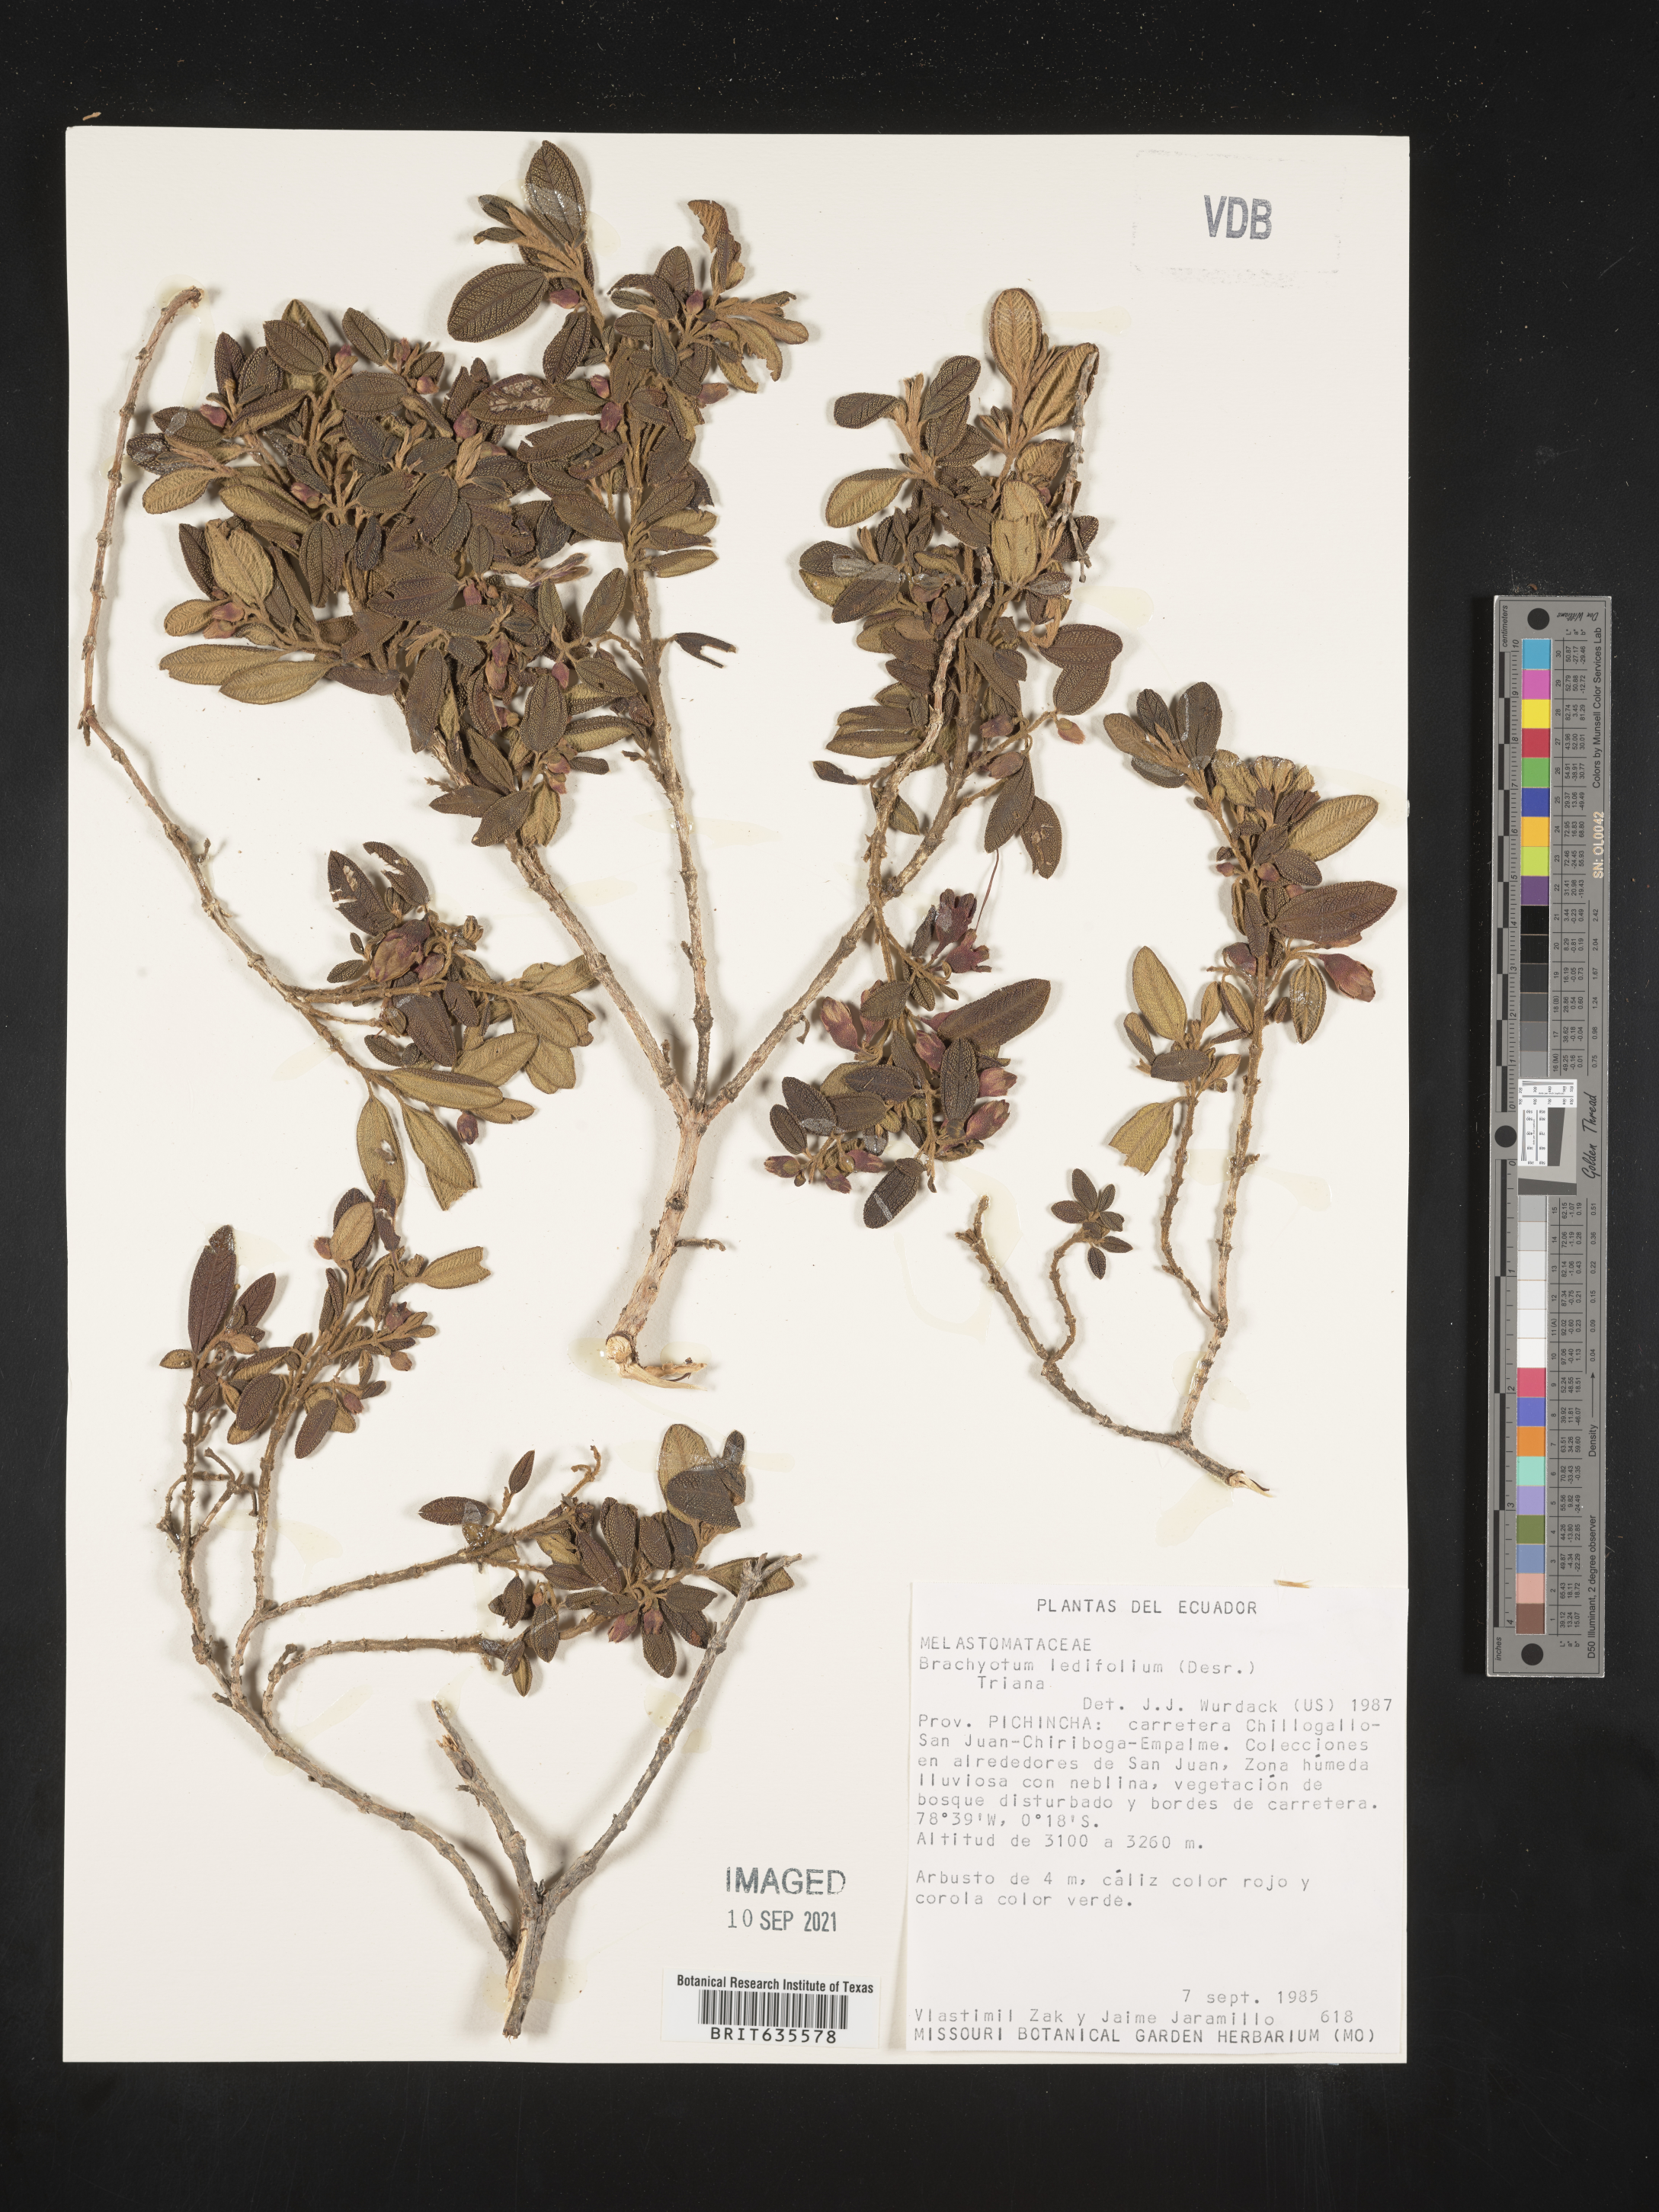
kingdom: Plantae
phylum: Tracheophyta
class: Magnoliopsida
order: Myrtales
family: Melastomataceae
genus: Brachyotum
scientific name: Brachyotum
